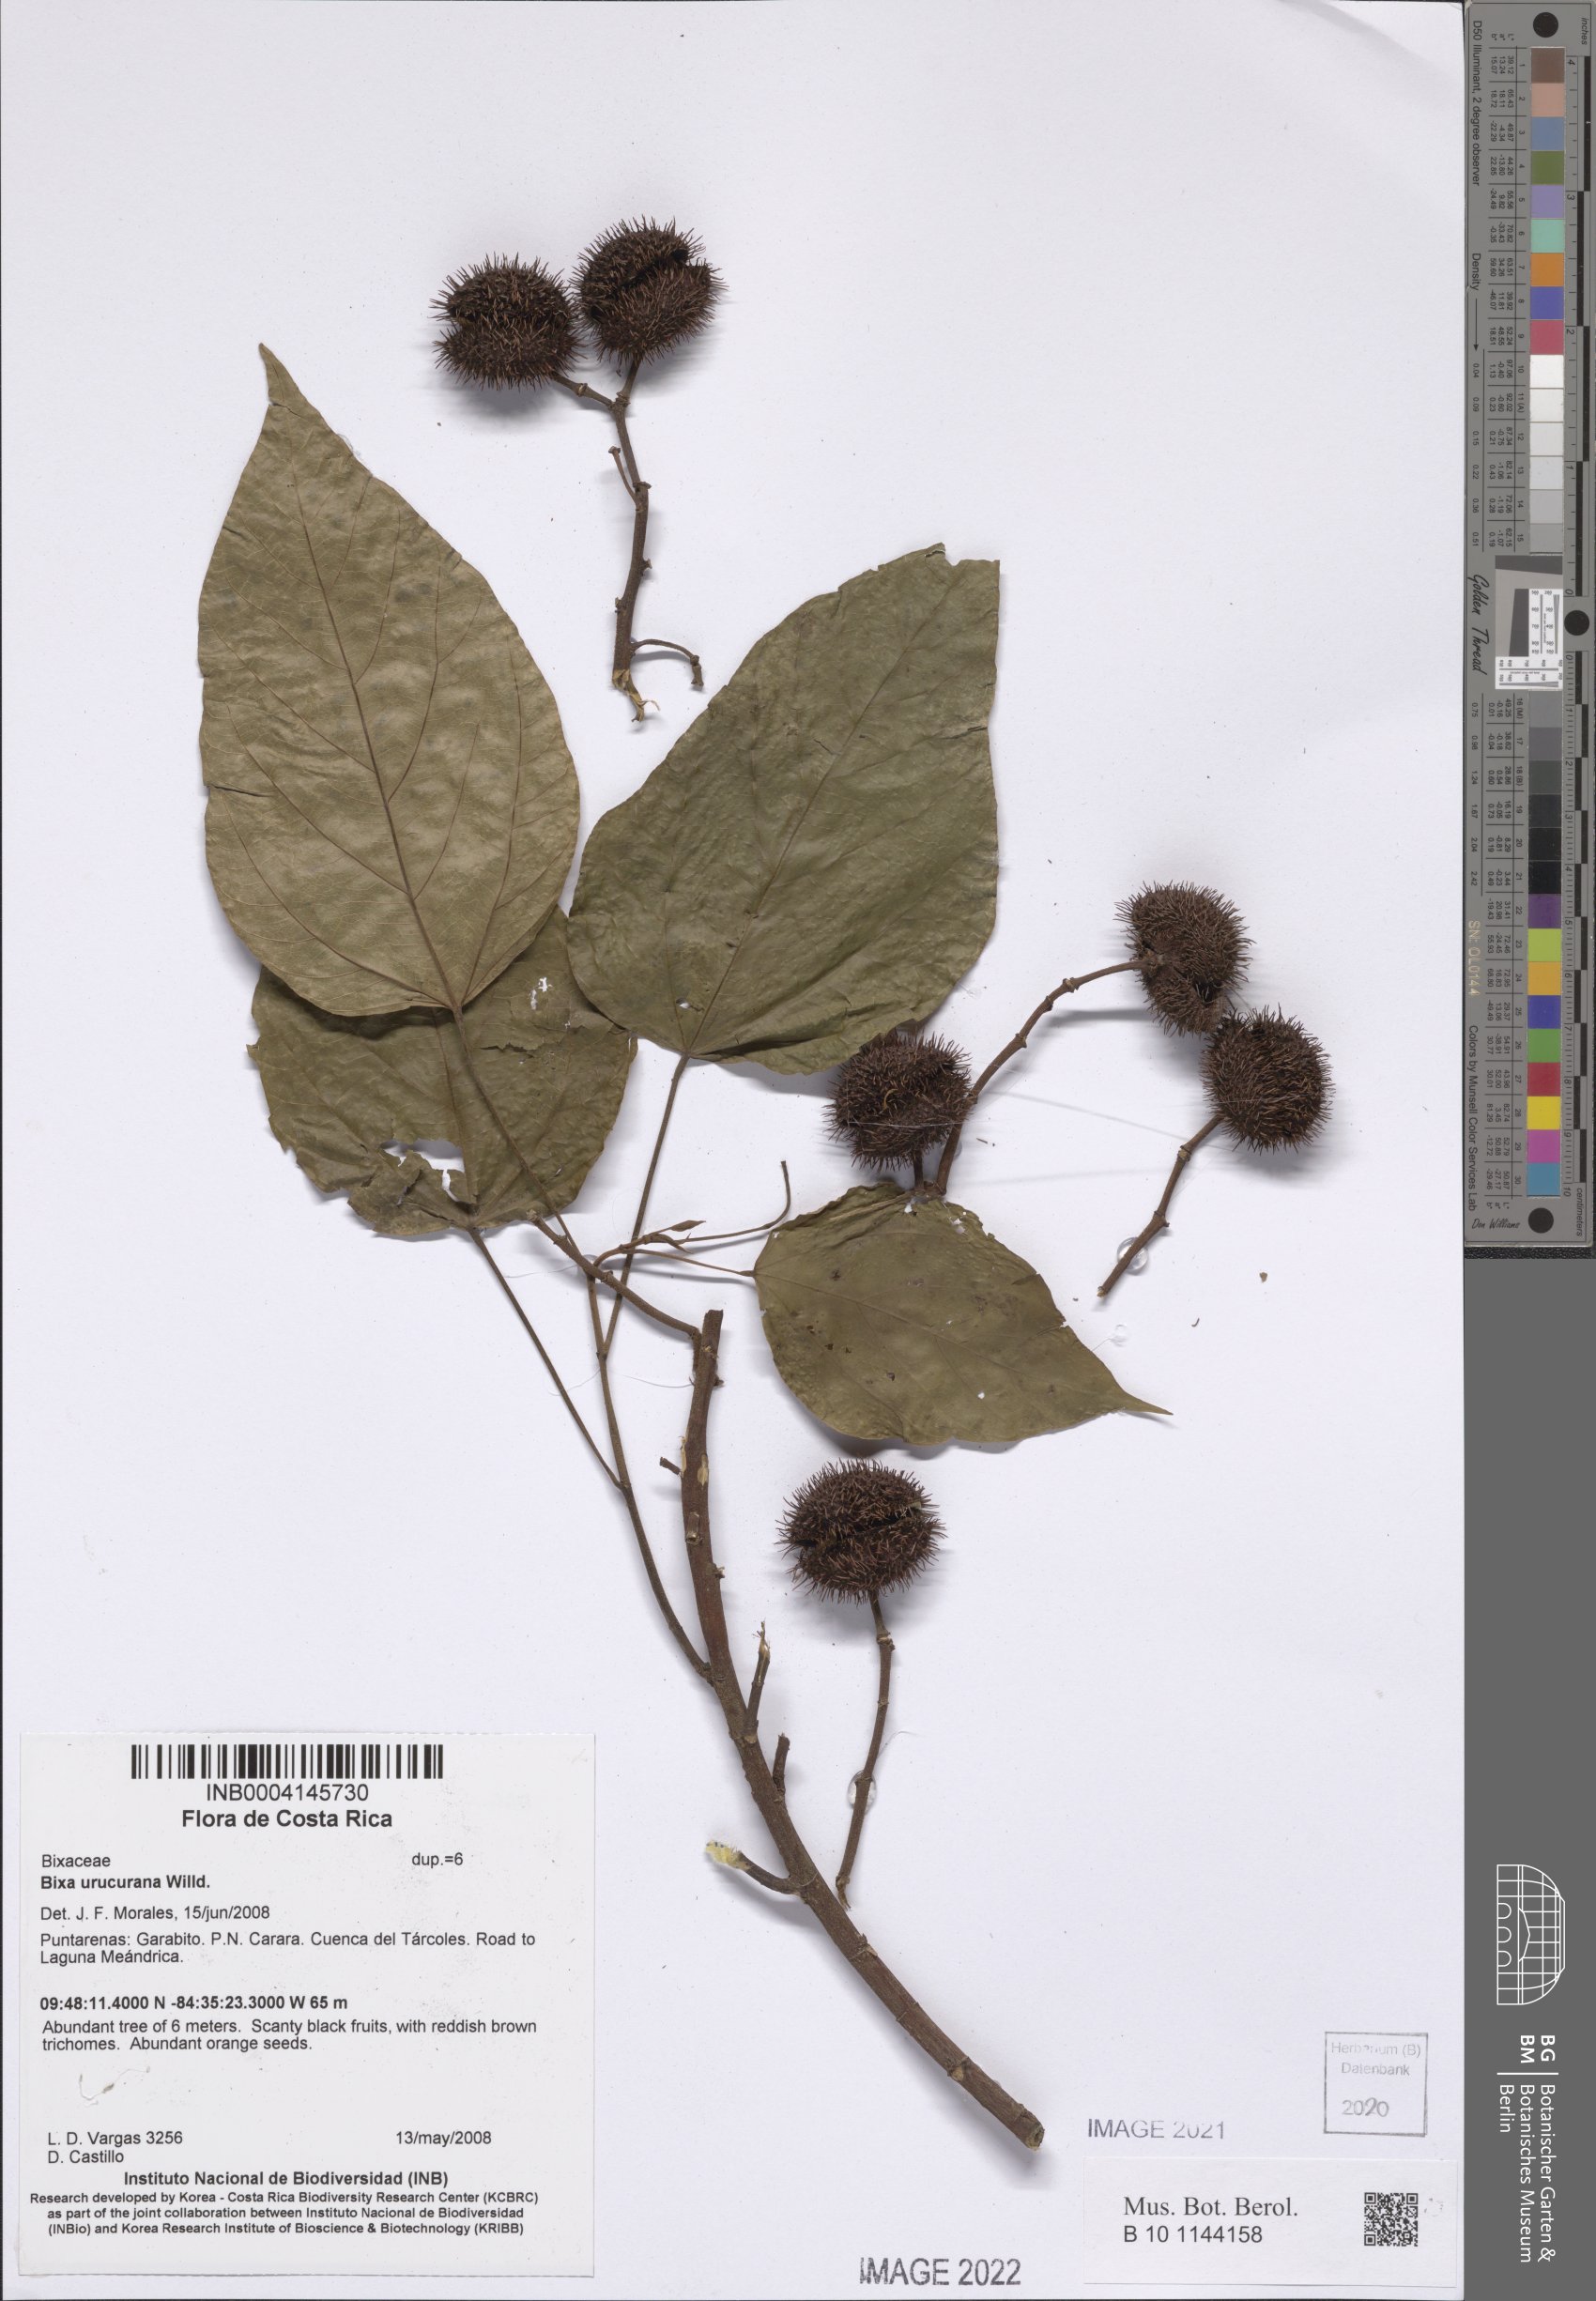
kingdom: Plantae
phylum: Tracheophyta
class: Magnoliopsida
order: Malvales
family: Bixaceae
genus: Bixa
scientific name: Bixa urucurana
